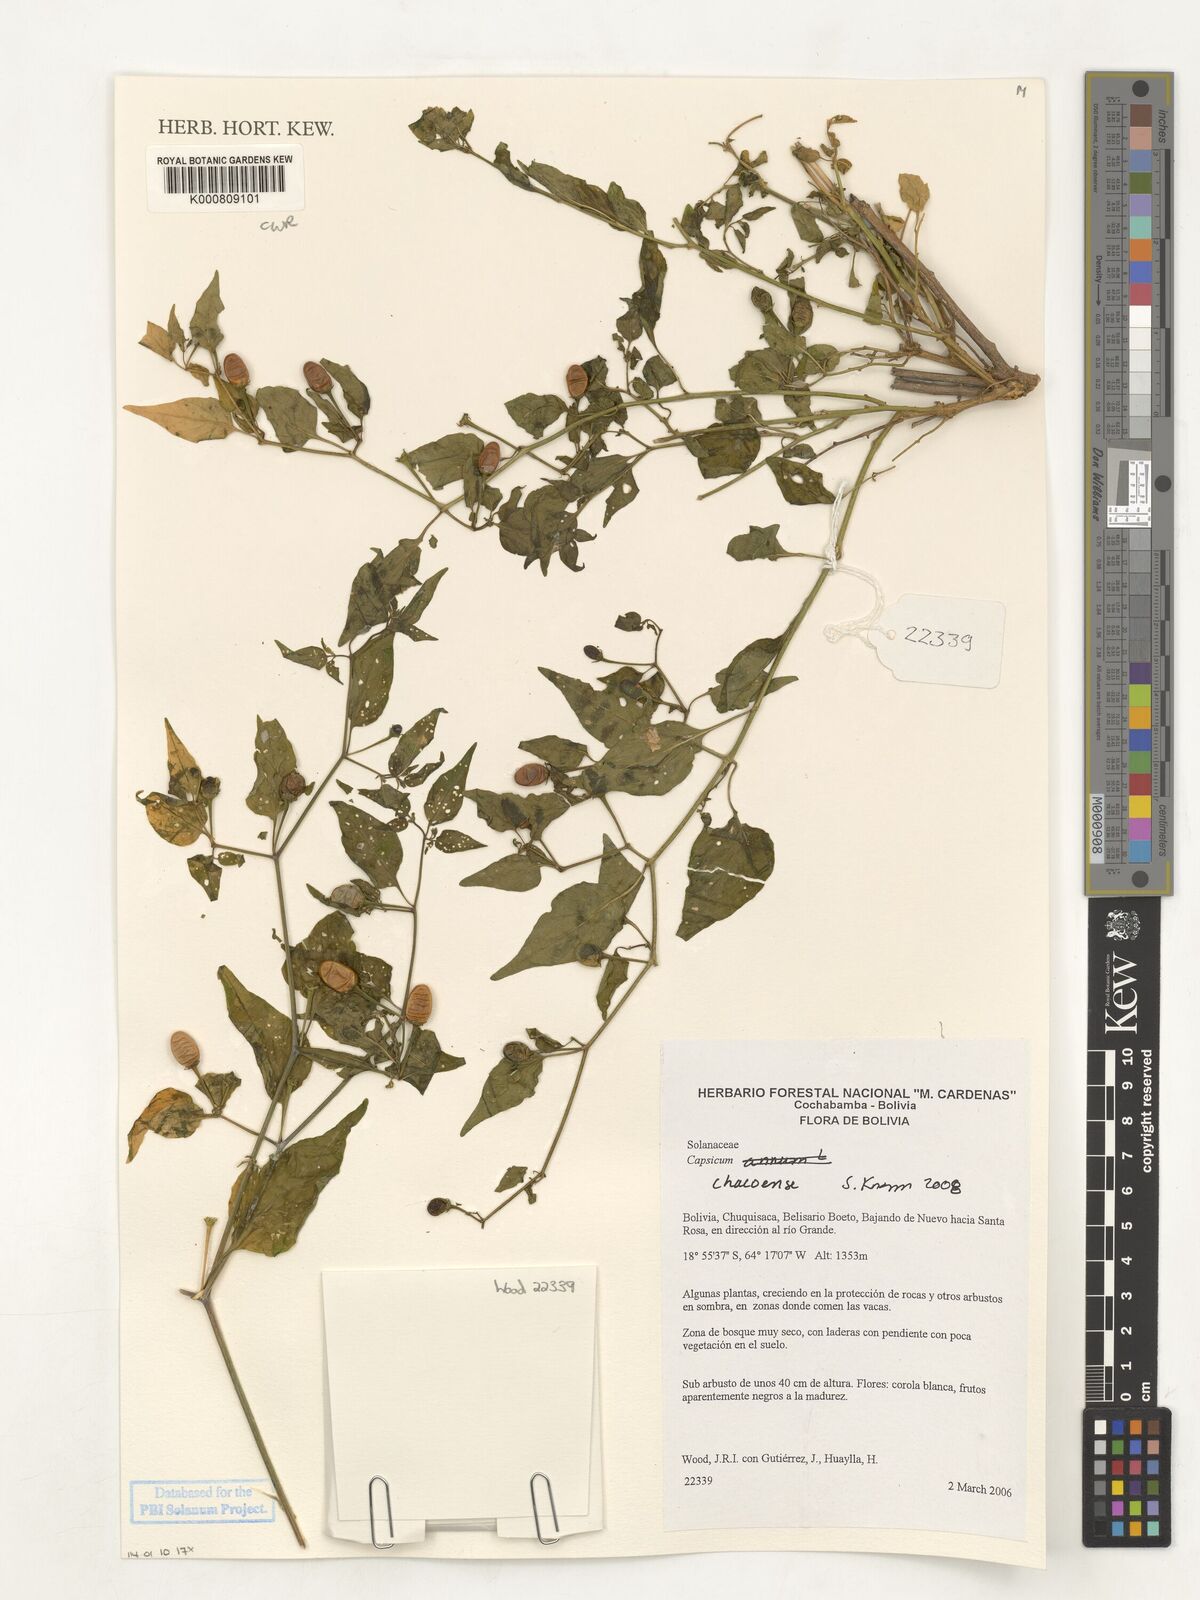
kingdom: Plantae
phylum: Tracheophyta
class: Magnoliopsida
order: Solanales
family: Solanaceae
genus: Capsicum
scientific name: Capsicum chacoense
